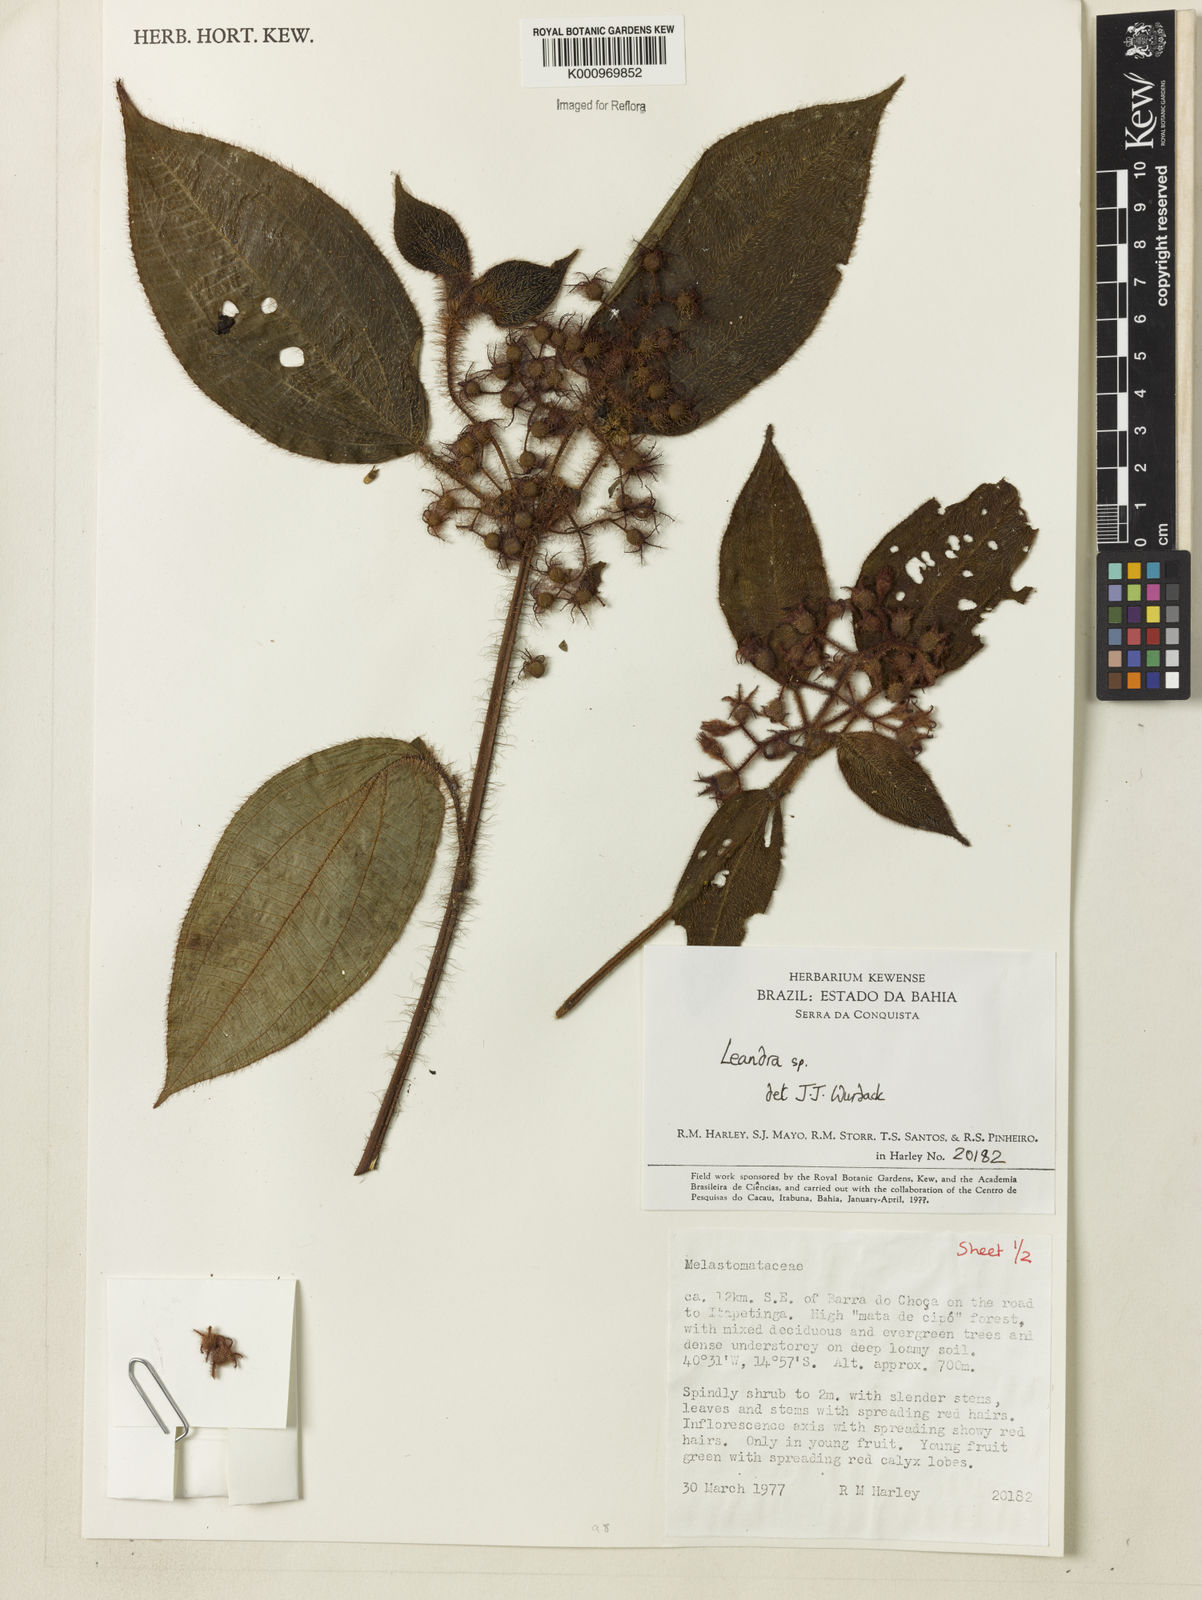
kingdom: Plantae
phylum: Tracheophyta
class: Magnoliopsida
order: Myrtales
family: Melastomataceae
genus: Miconia
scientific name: Miconia
